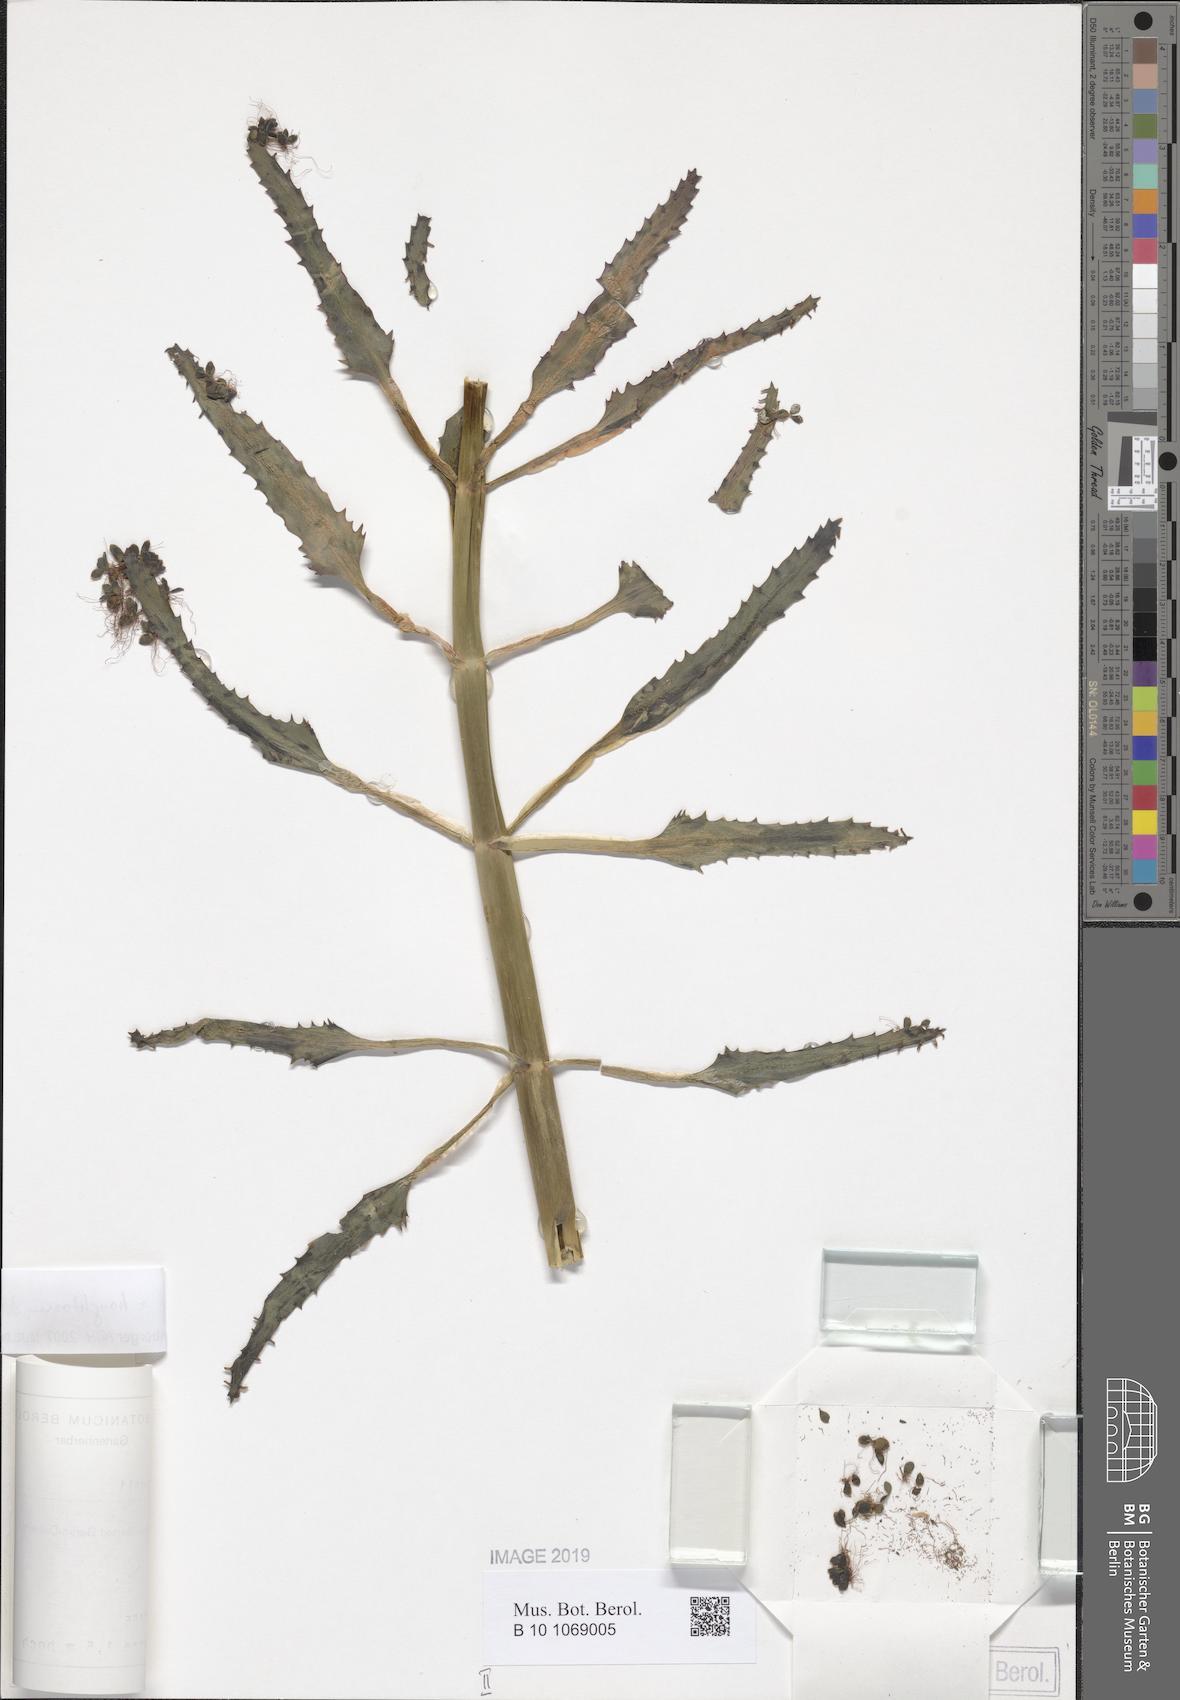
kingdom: Plantae
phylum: Tracheophyta
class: Magnoliopsida
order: Saxifragales
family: Crassulaceae
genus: Kalanchoe
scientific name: Kalanchoe houghtonii
